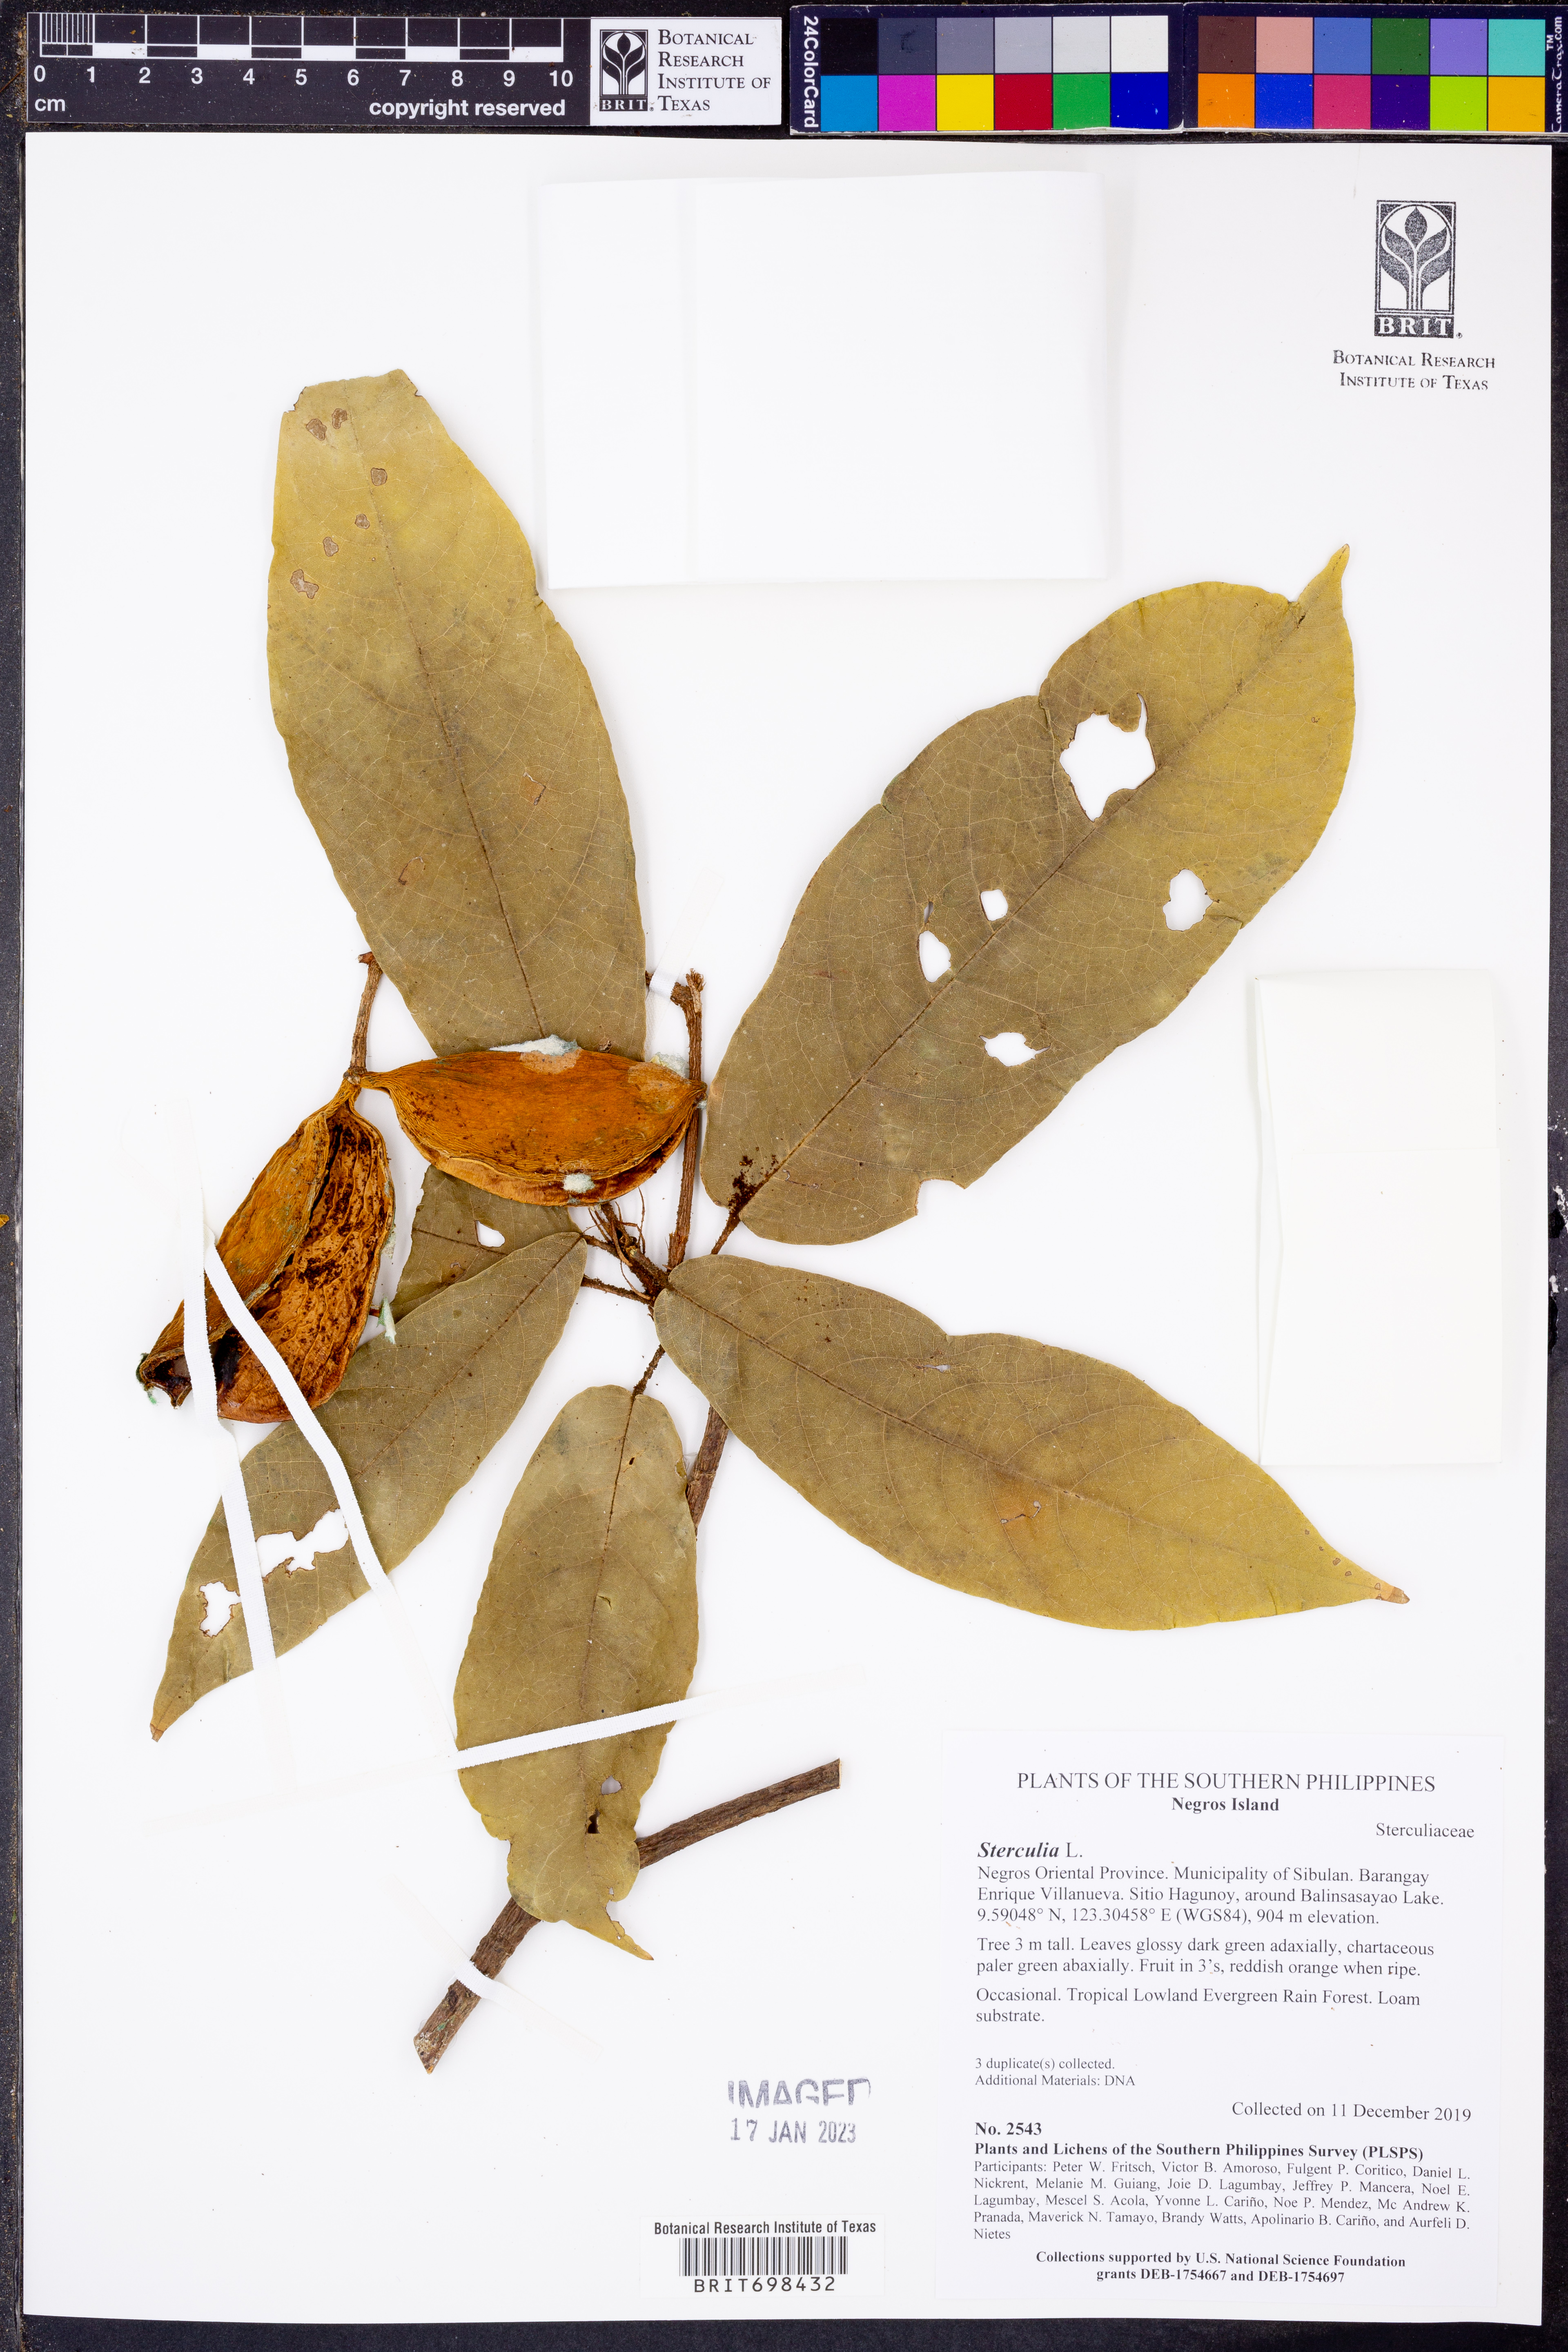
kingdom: Plantae
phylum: Tracheophyta
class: Magnoliopsida
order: Malvales
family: Malvaceae
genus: Sterculia
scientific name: Sterculia
